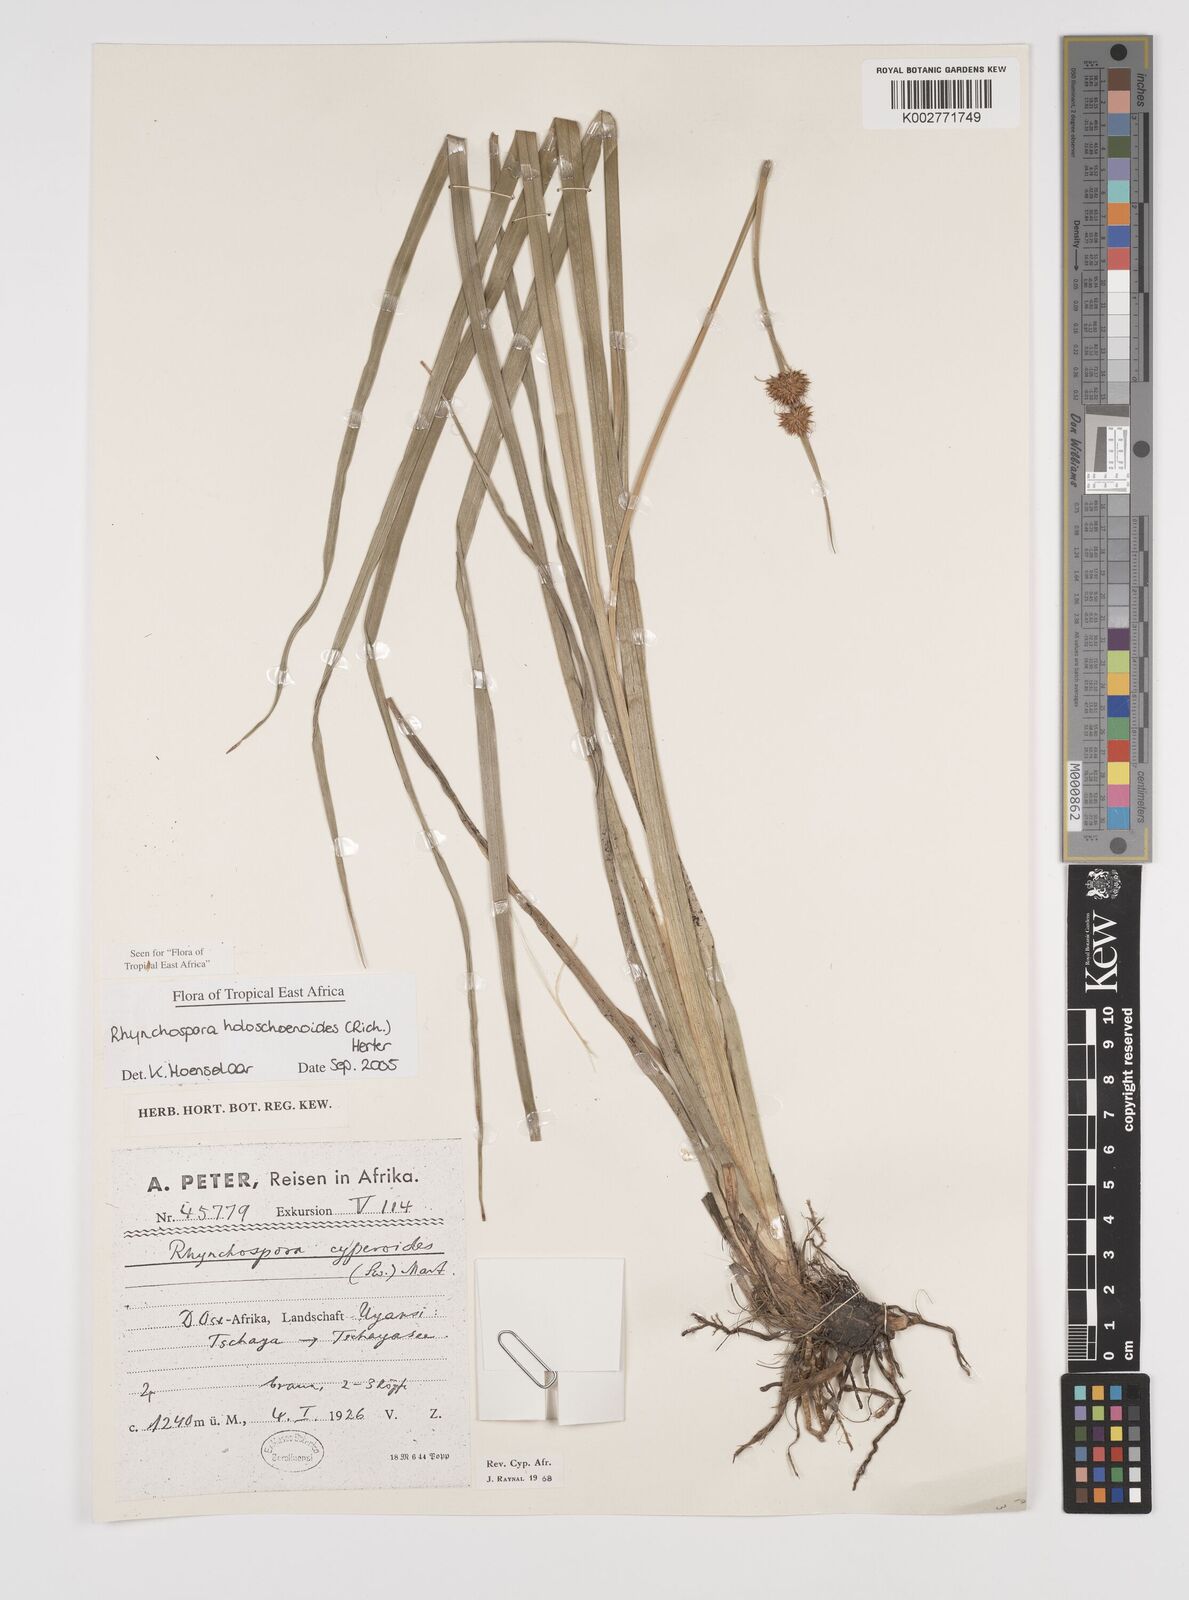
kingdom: Plantae
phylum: Tracheophyta
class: Liliopsida
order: Poales
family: Cyperaceae
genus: Rhynchospora
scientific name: Rhynchospora holoschoenoides
